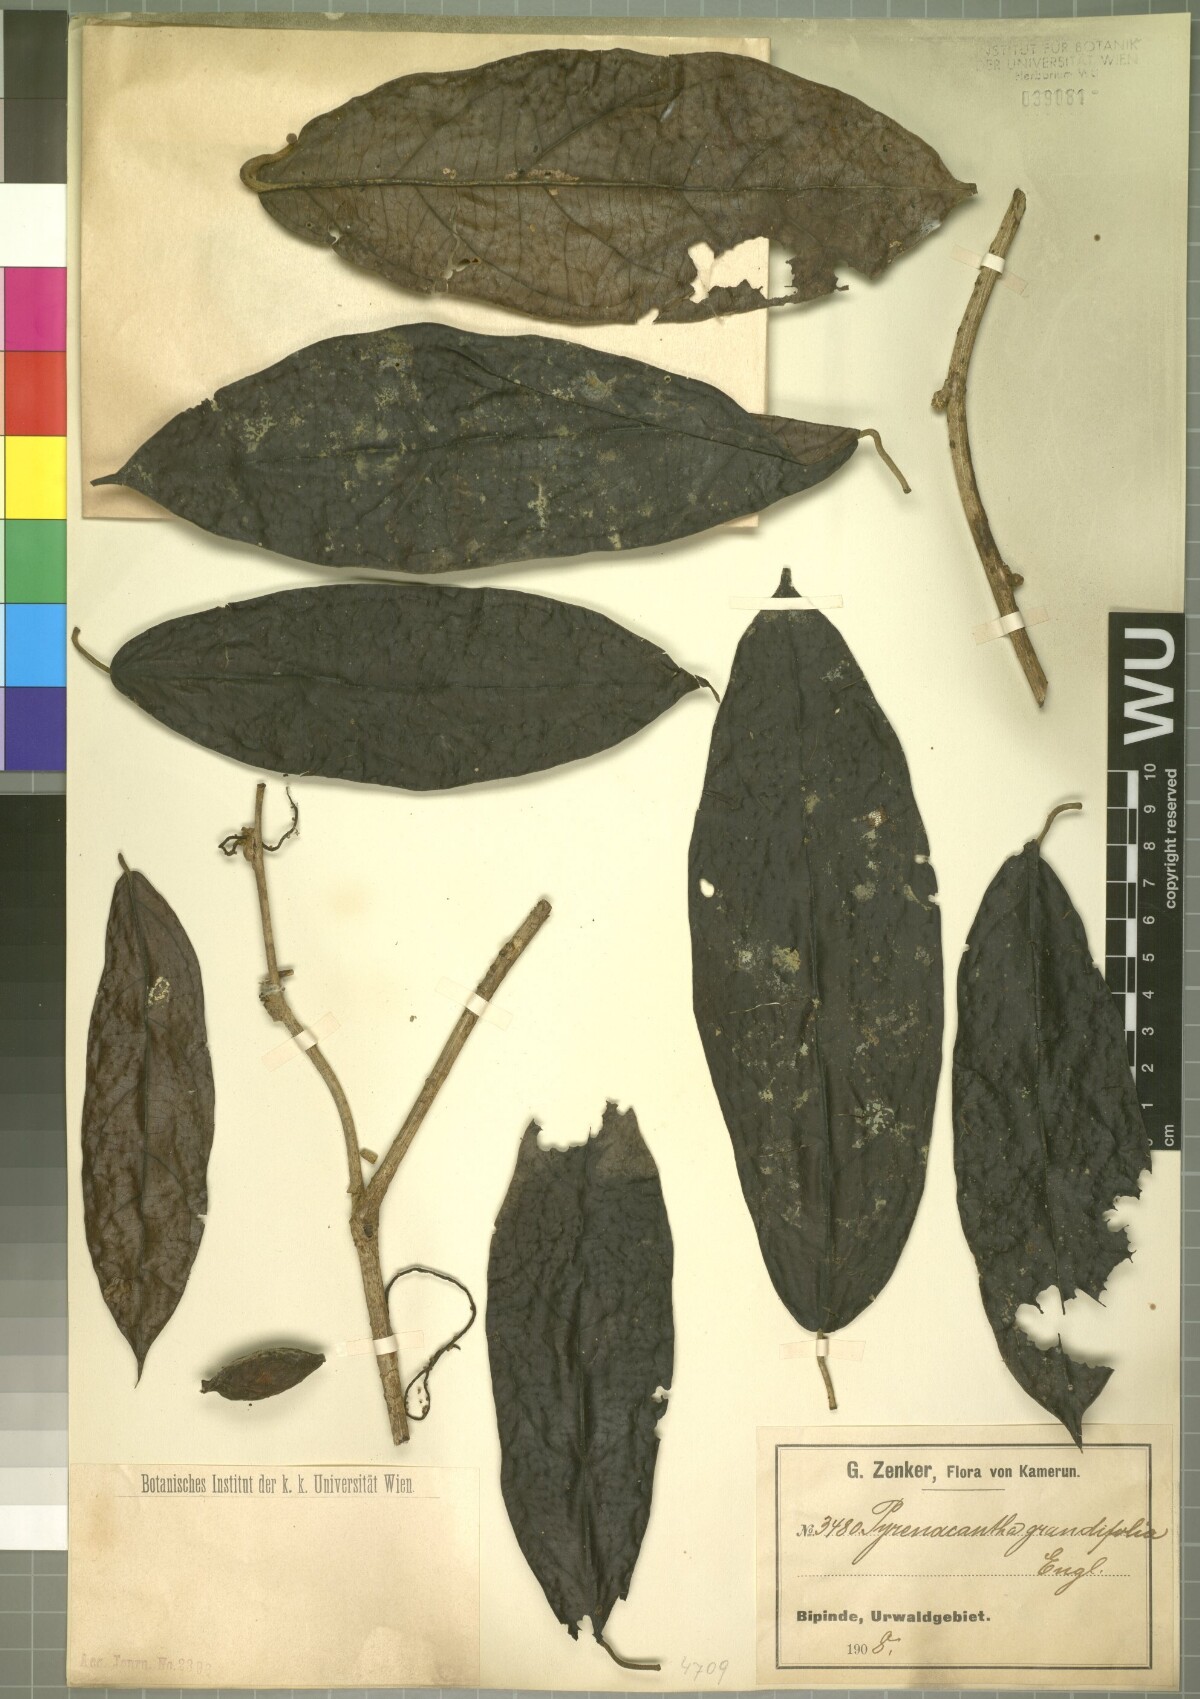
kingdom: Plantae
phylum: Tracheophyta
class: Magnoliopsida
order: Icacinales
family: Icacinaceae
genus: Pyrenacantha
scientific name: Pyrenacantha grandifolia
